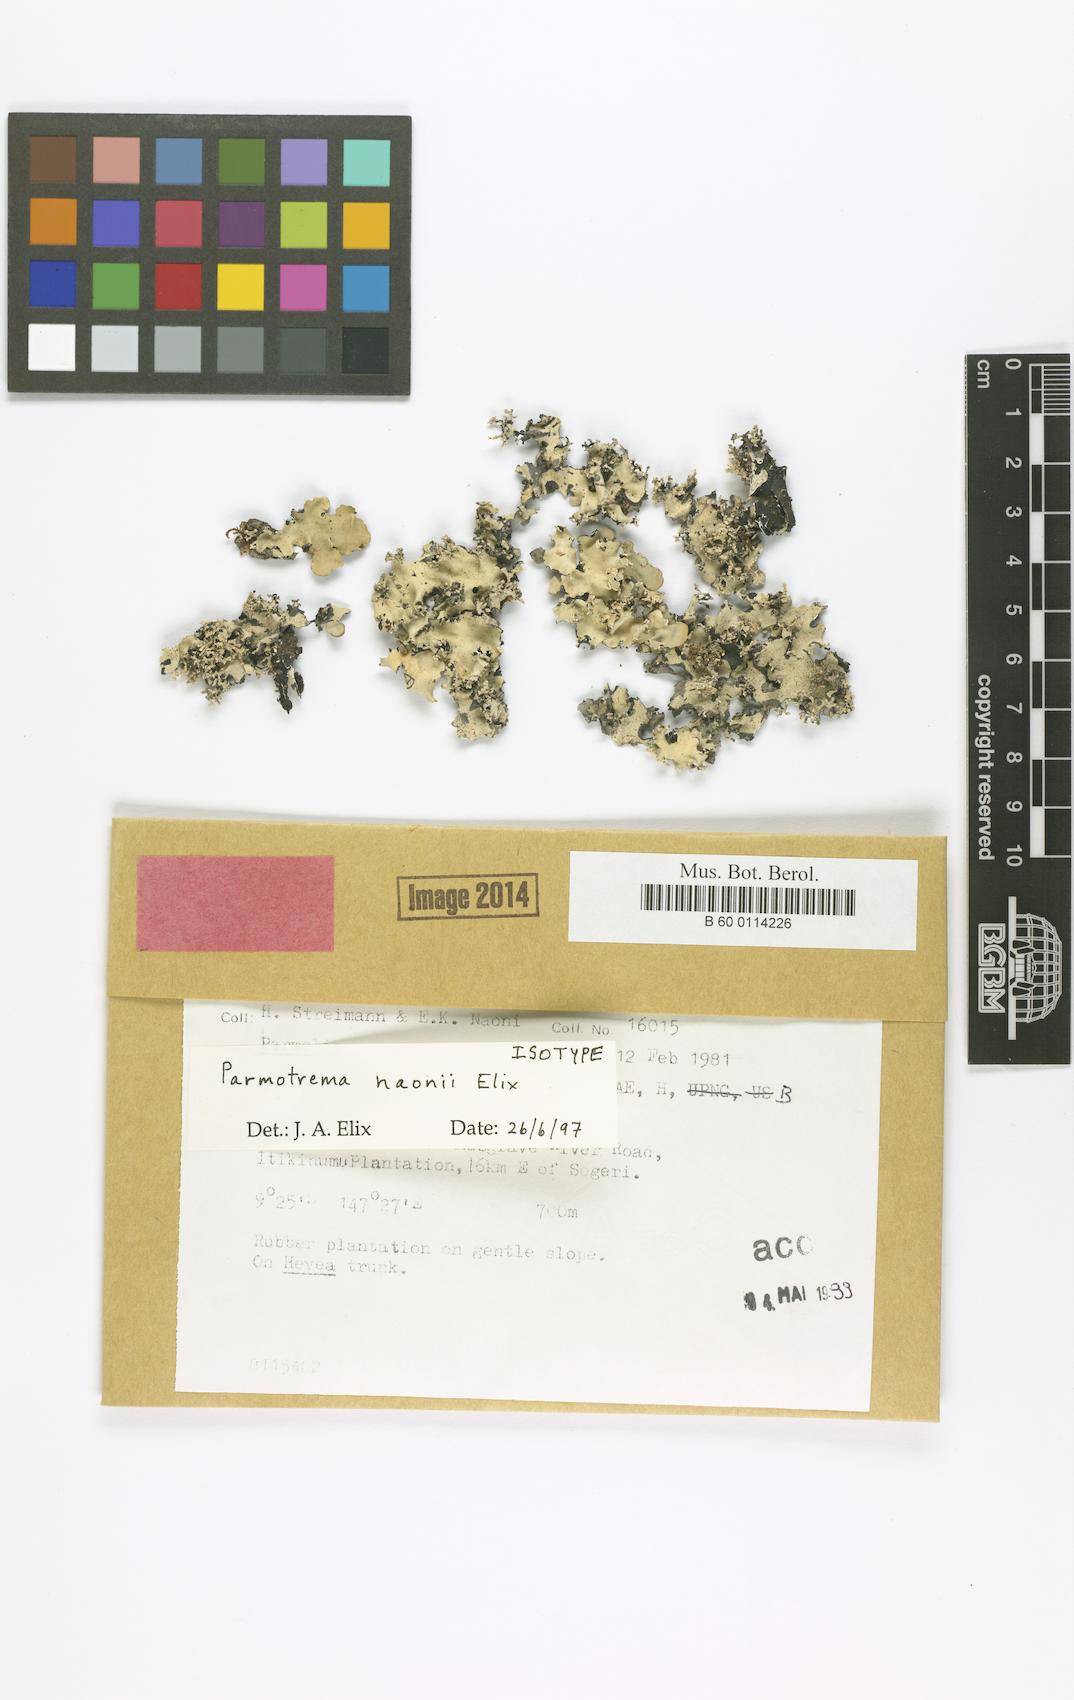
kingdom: Fungi
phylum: Ascomycota
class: Lecanoromycetes
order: Lecanorales
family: Parmeliaceae
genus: Parmotrema
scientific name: Parmotrema
